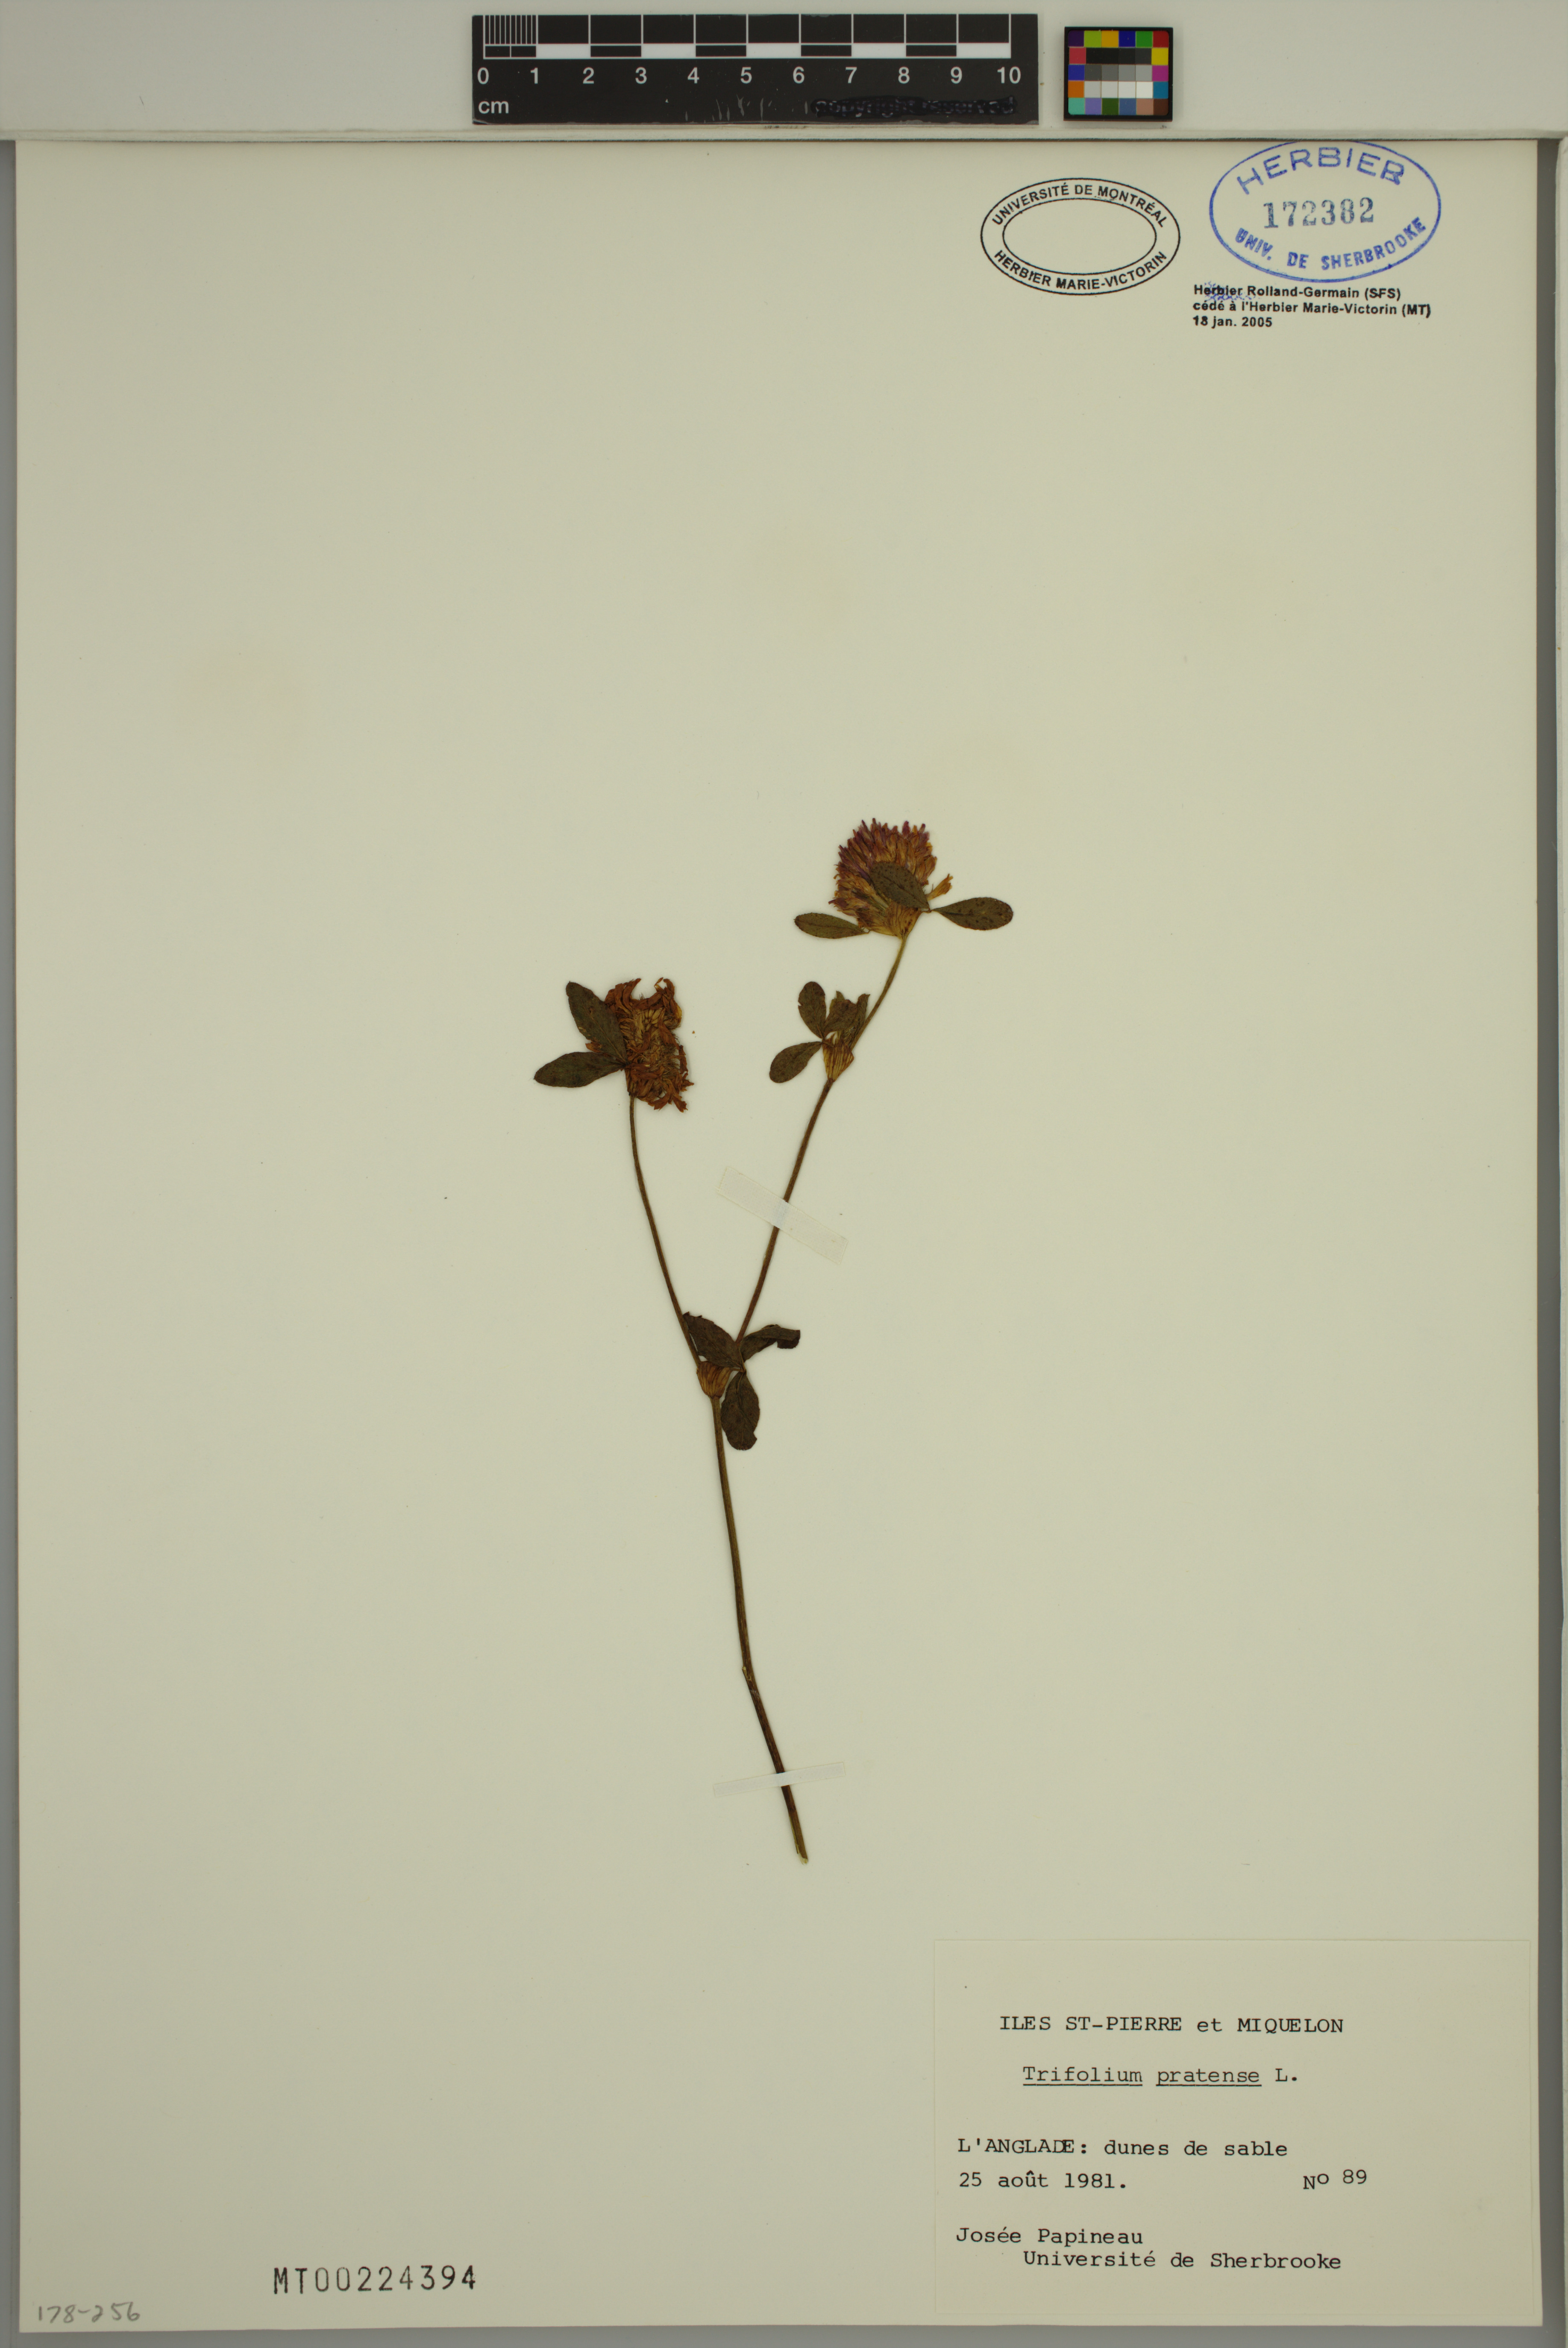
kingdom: Plantae
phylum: Tracheophyta
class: Magnoliopsida
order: Fabales
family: Fabaceae
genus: Trifolium
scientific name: Trifolium pratense
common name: Red clover
